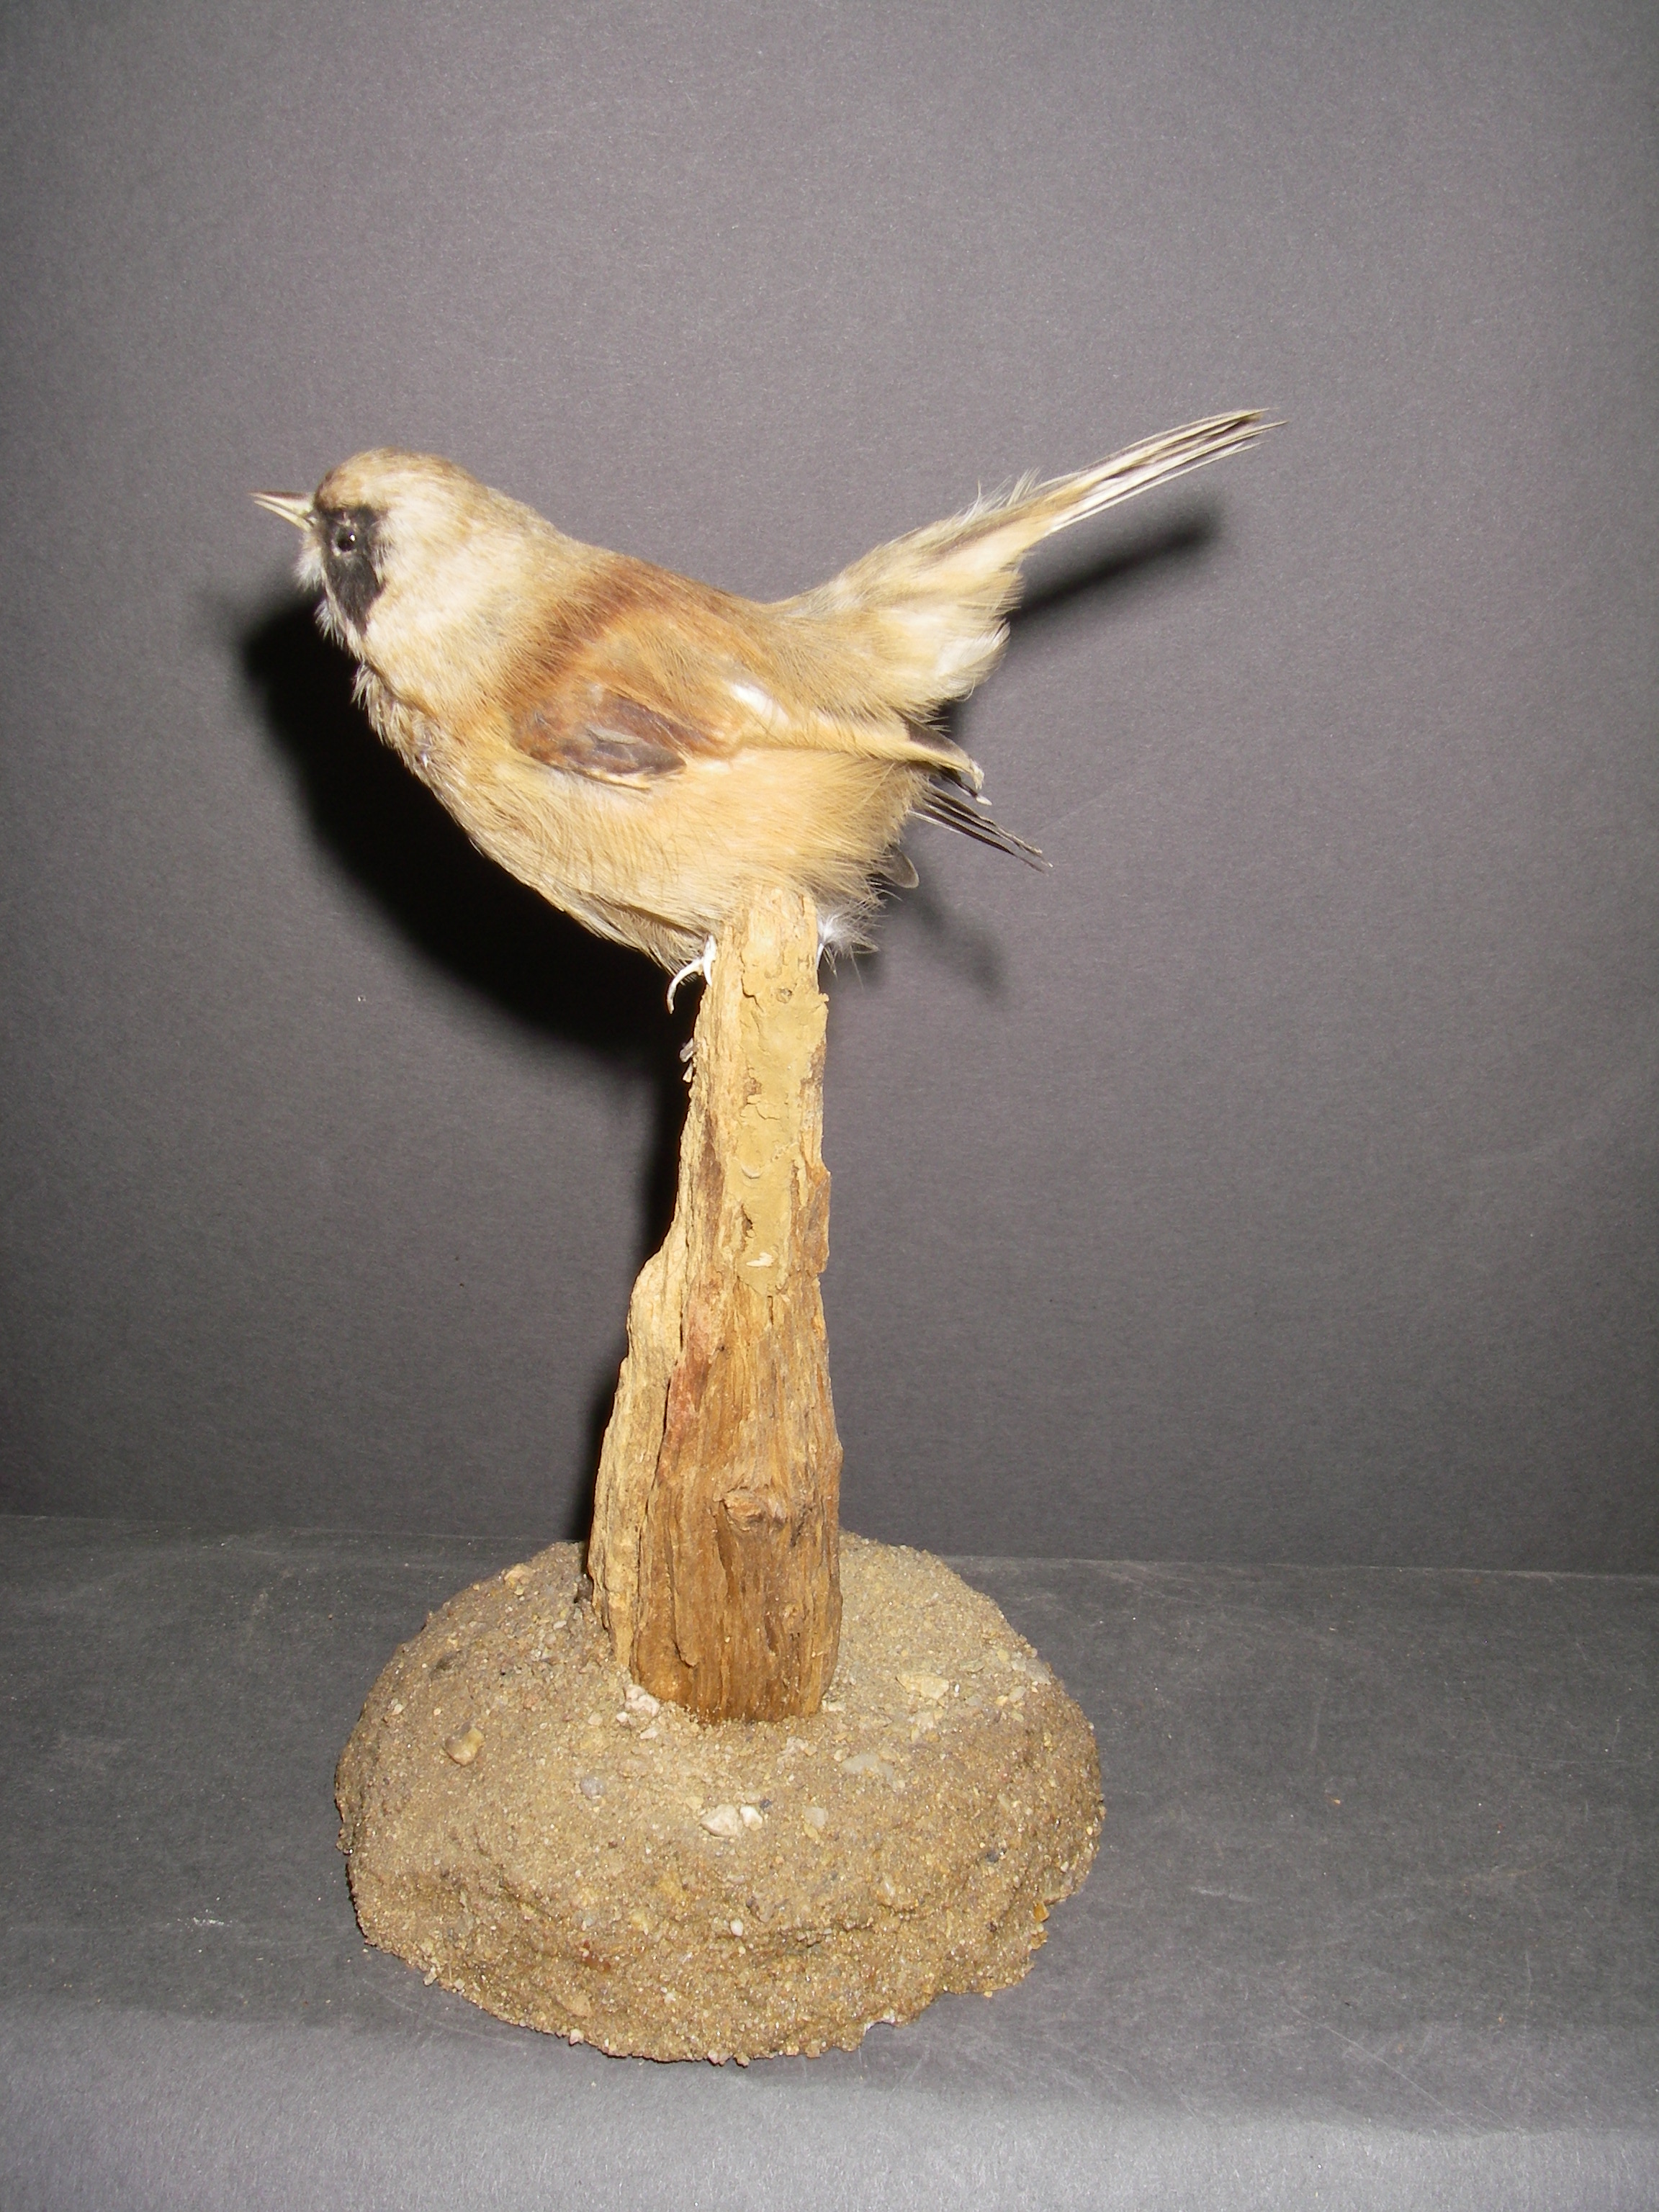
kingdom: Animalia
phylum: Chordata
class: Aves
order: Passeriformes
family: Remizidae
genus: Remiz
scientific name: Remiz pendulinus
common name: Eurasian penduline tit
